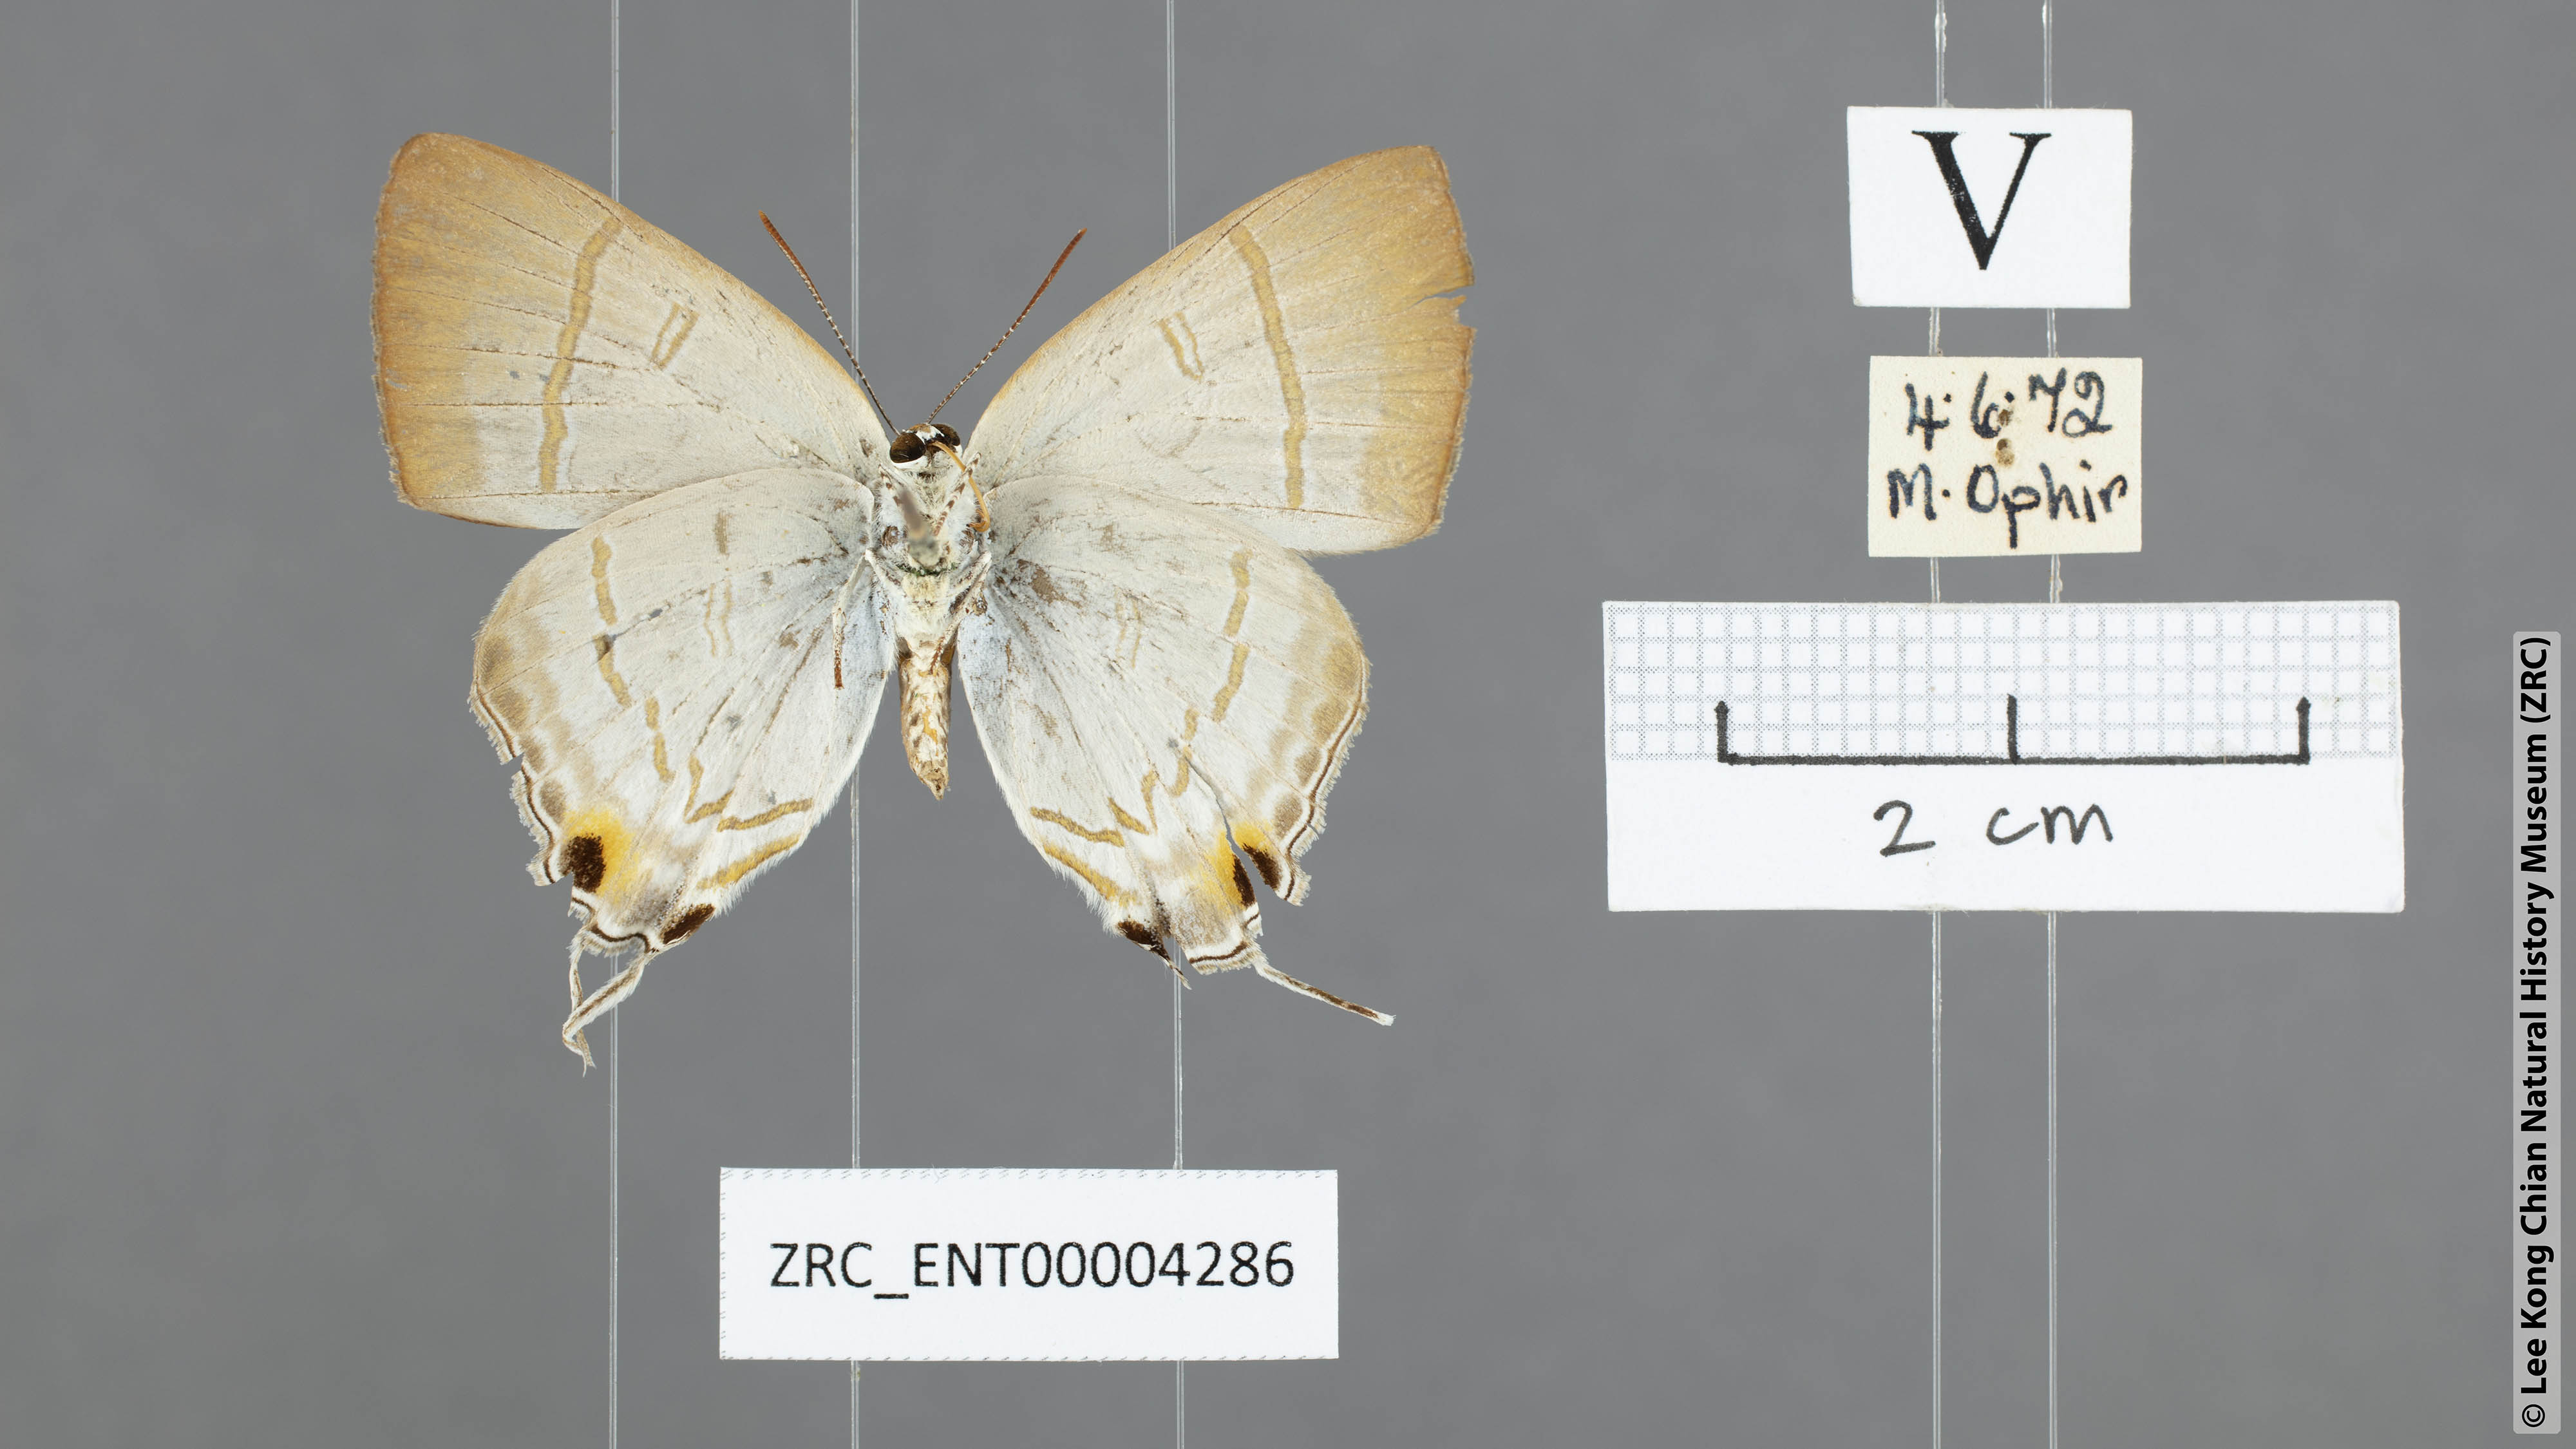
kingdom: Animalia
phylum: Arthropoda
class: Insecta
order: Lepidoptera
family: Lycaenidae
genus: Hypolycaena
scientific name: Hypolycaena erylus
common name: Common tit
